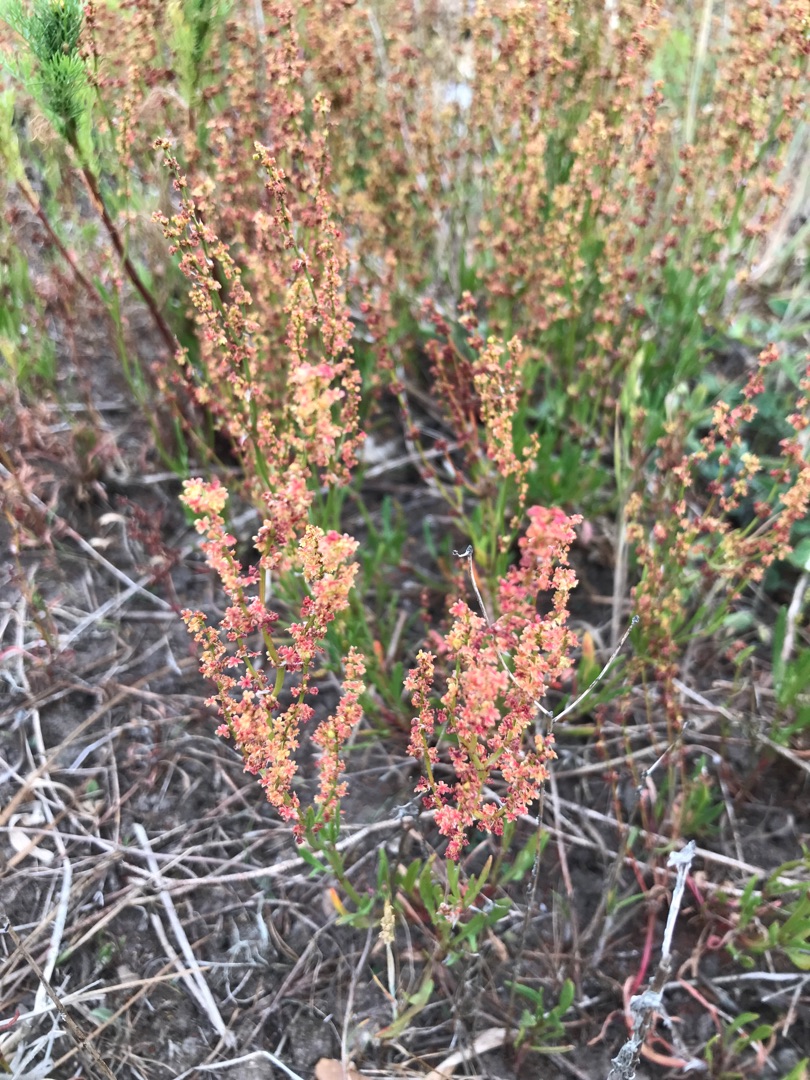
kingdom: Plantae
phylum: Tracheophyta
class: Magnoliopsida
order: Caryophyllales
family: Polygonaceae
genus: Rumex
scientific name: Rumex thyrsiflorus
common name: Dusk-syre
